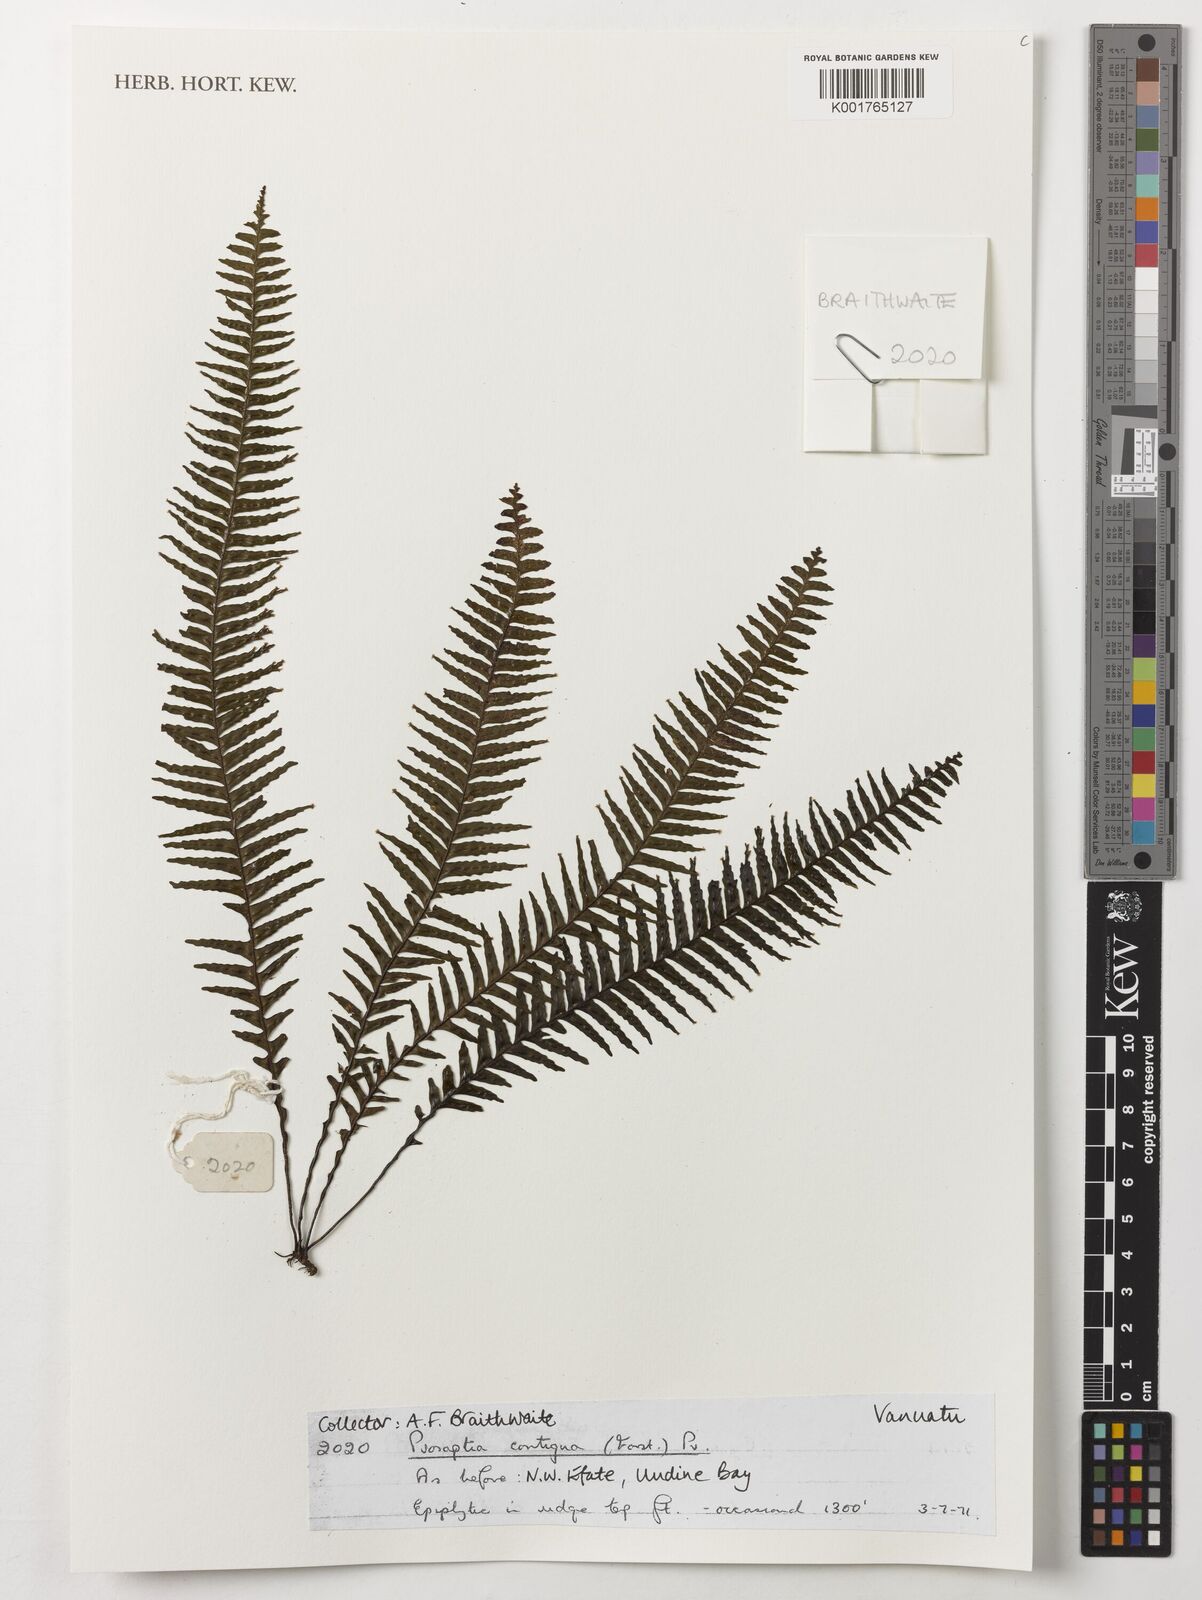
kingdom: Plantae
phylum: Tracheophyta
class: Polypodiopsida
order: Polypodiales
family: Polypodiaceae
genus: Prosaptia
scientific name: Prosaptia contigua
